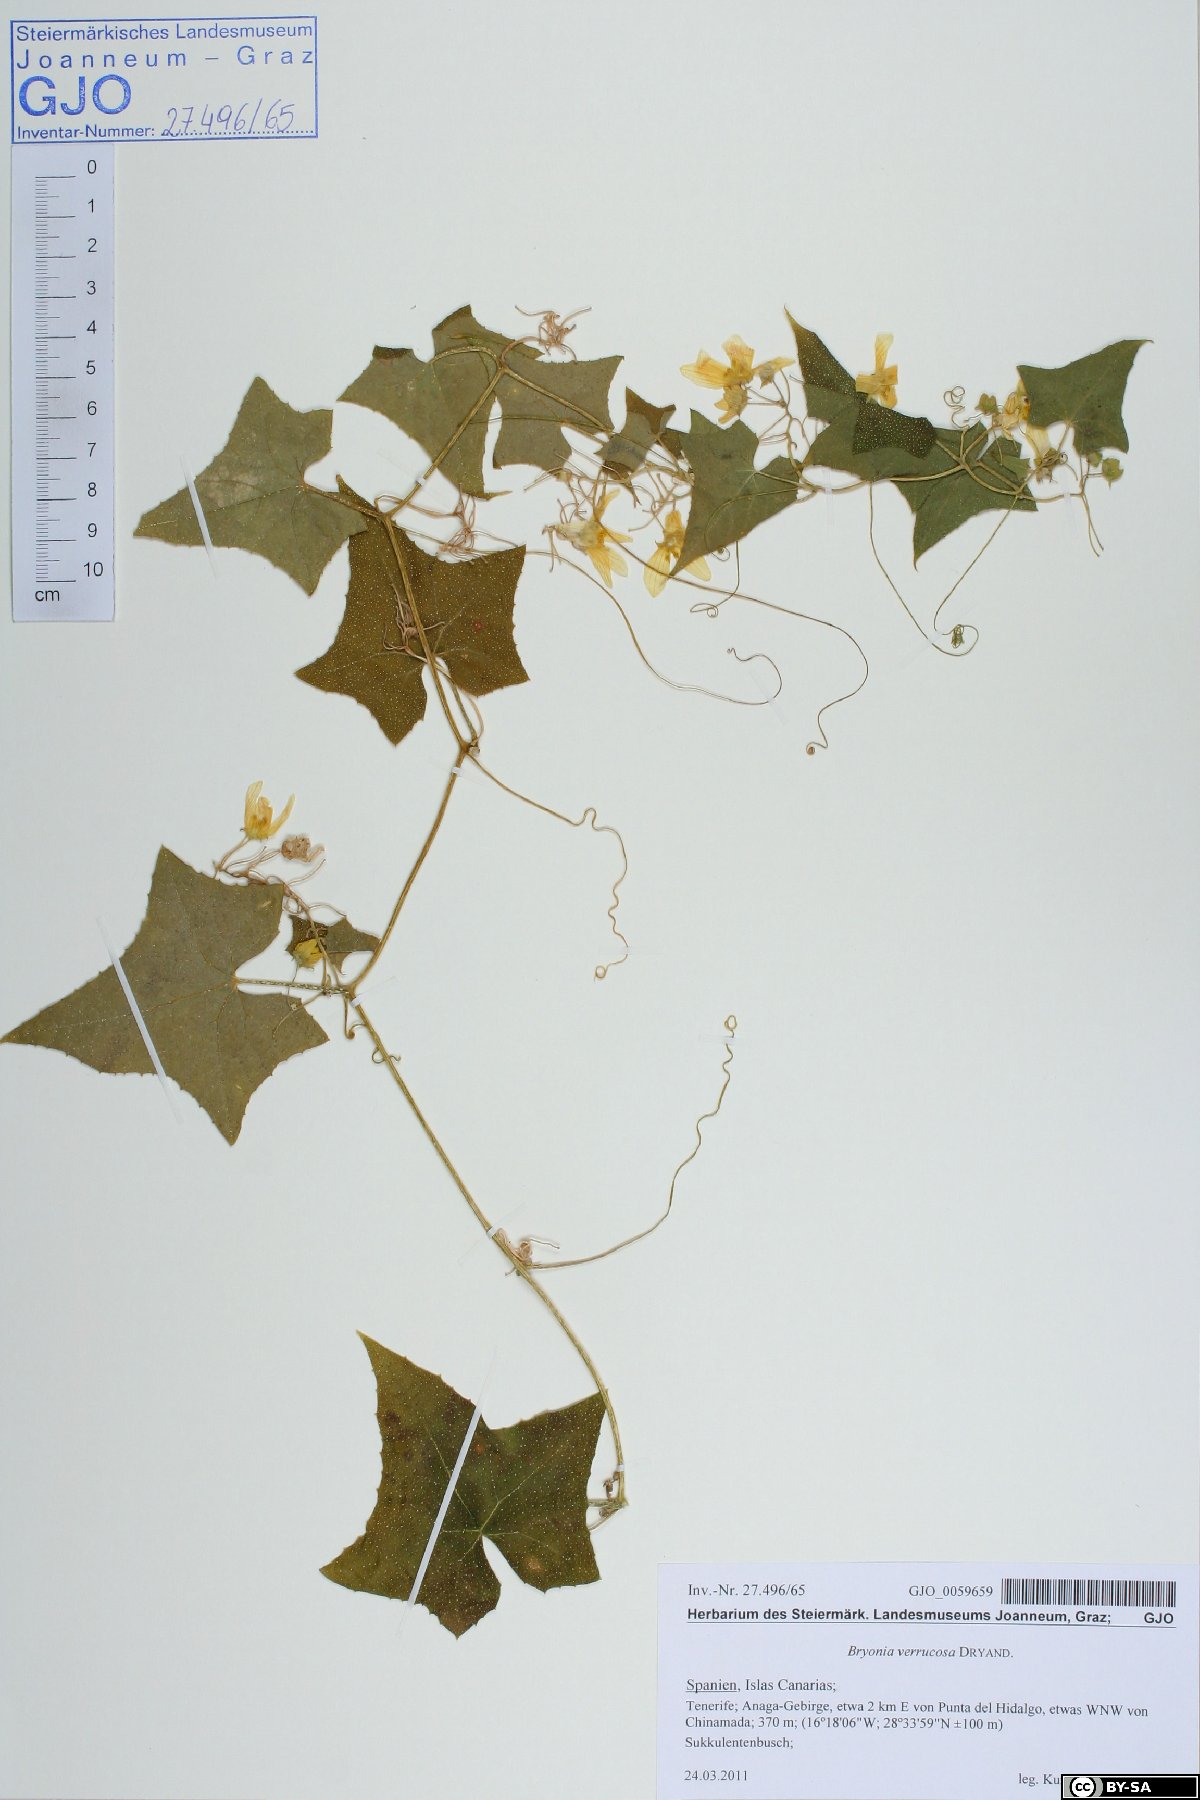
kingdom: Plantae
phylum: Tracheophyta
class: Magnoliopsida
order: Cucurbitales
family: Cucurbitaceae
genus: Bryonia
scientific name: Bryonia verrucosa
